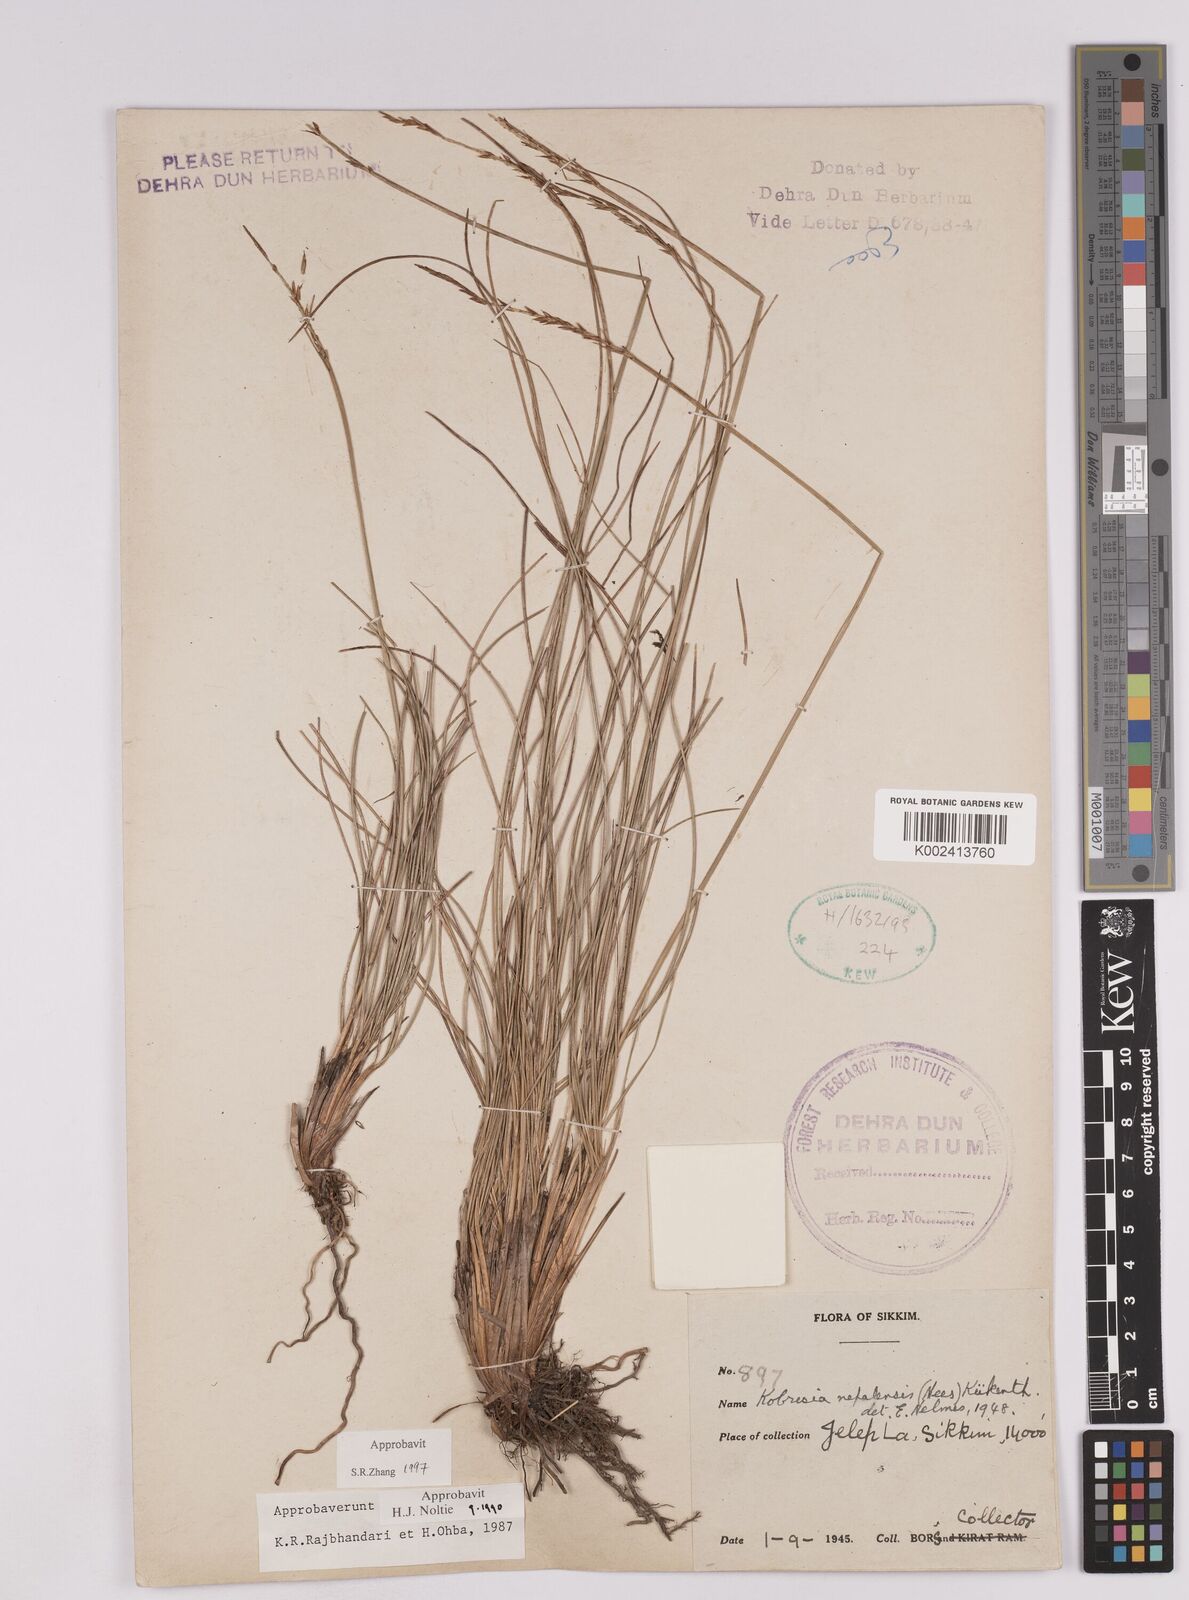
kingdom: Plantae
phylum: Tracheophyta
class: Liliopsida
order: Poales
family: Cyperaceae
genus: Carex
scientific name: Carex unciniiformis
